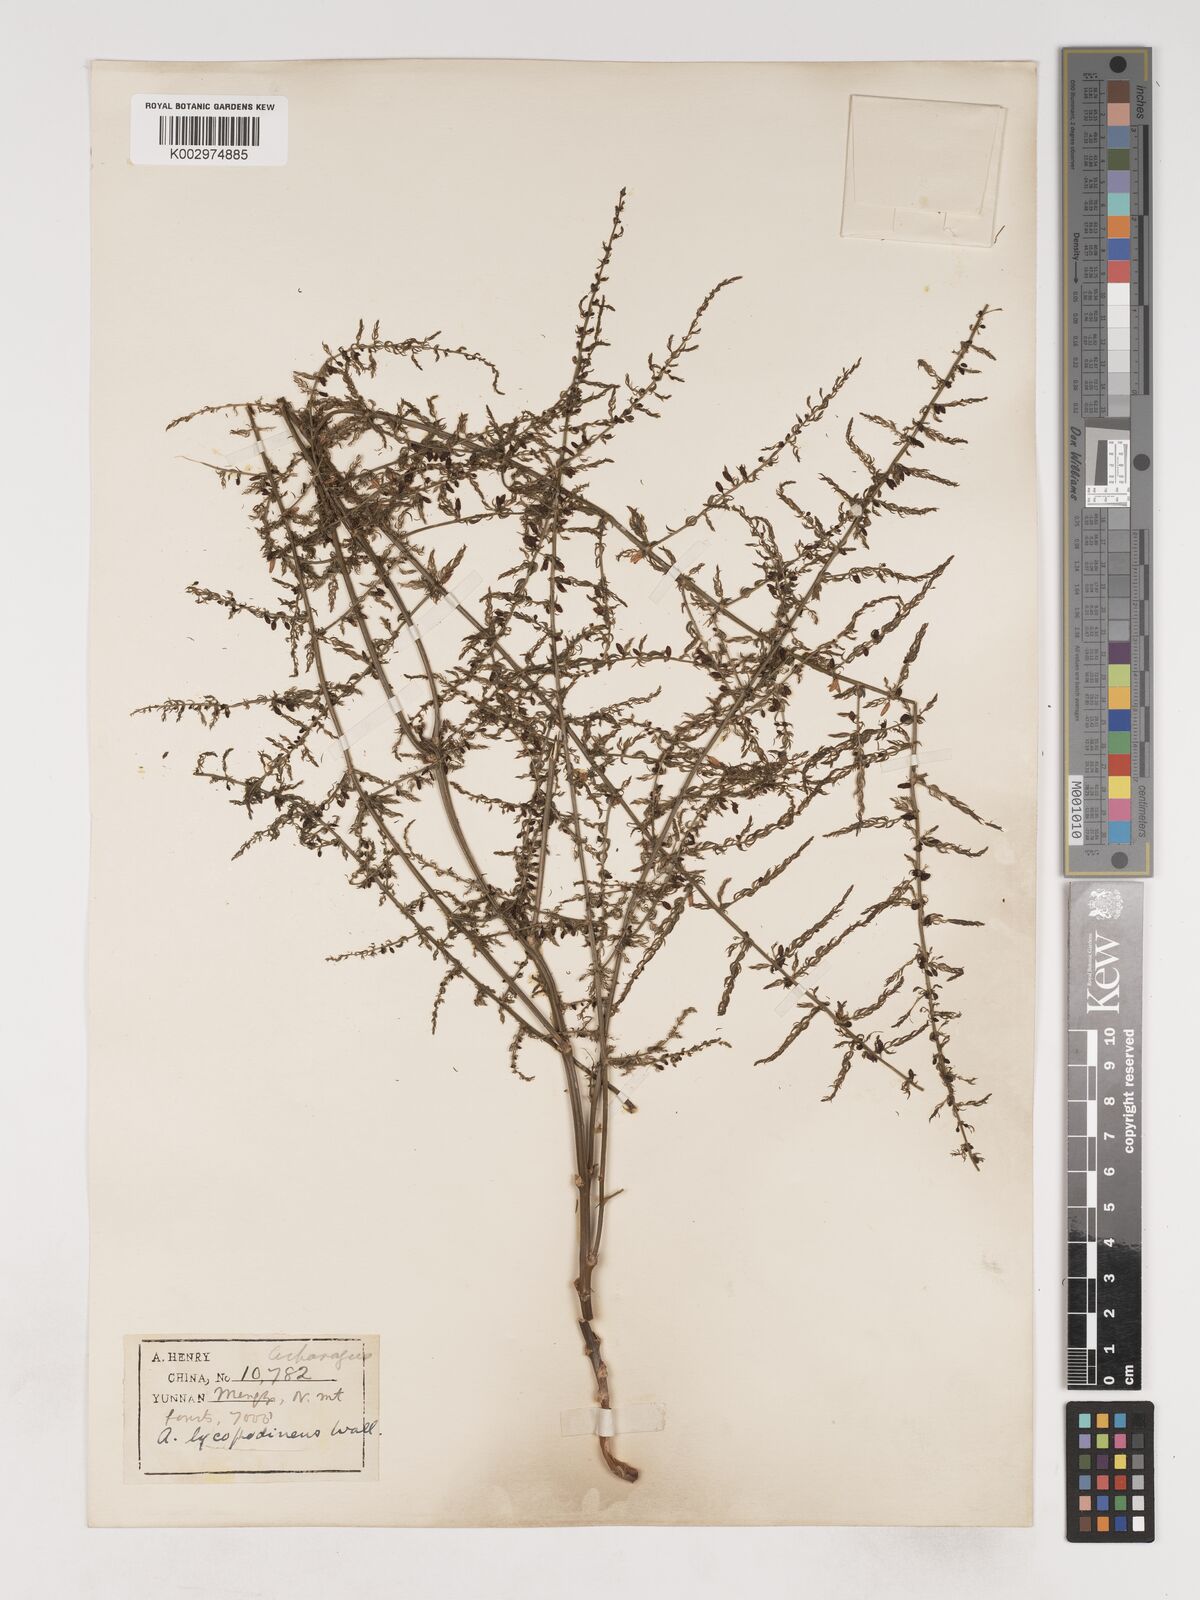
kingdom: Plantae
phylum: Tracheophyta
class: Liliopsida
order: Asparagales
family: Asparagaceae
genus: Asparagus
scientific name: Asparagus lycopodineus
